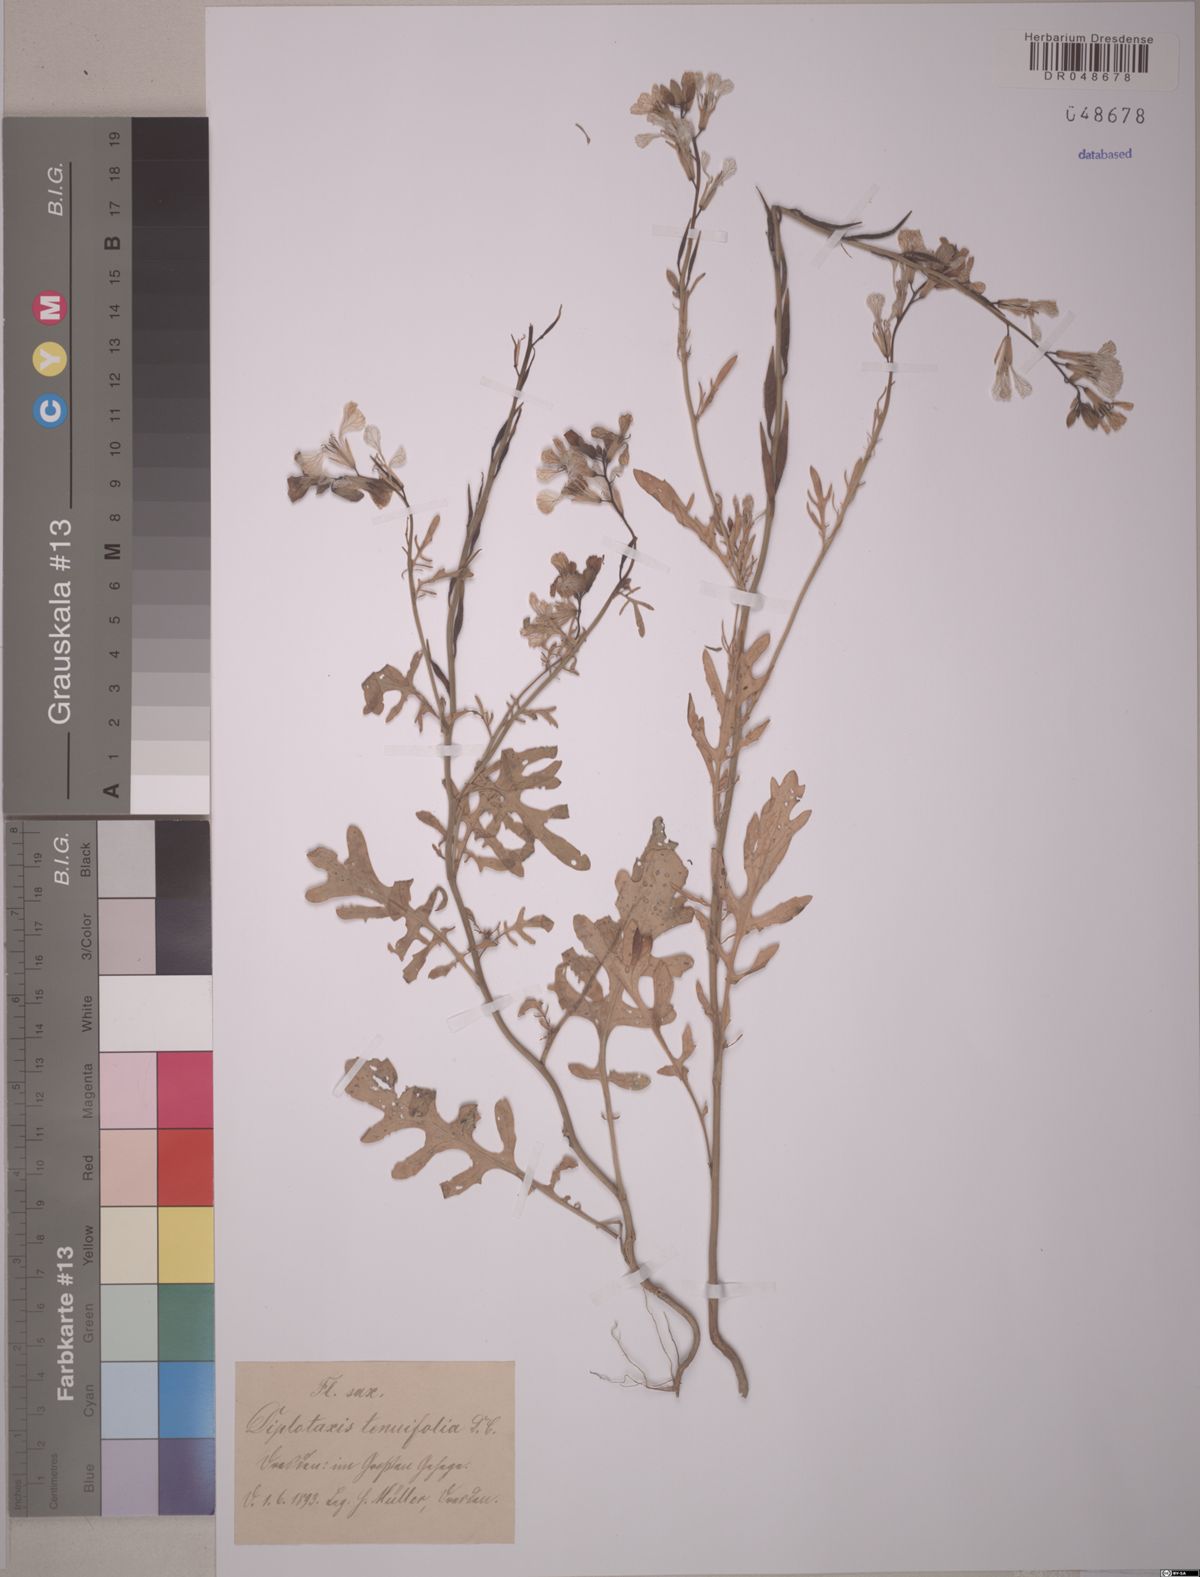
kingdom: Plantae
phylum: Tracheophyta
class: Magnoliopsida
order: Brassicales
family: Brassicaceae
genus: Diplotaxis
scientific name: Diplotaxis tenuifolia
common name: Perennial wall-rocket
